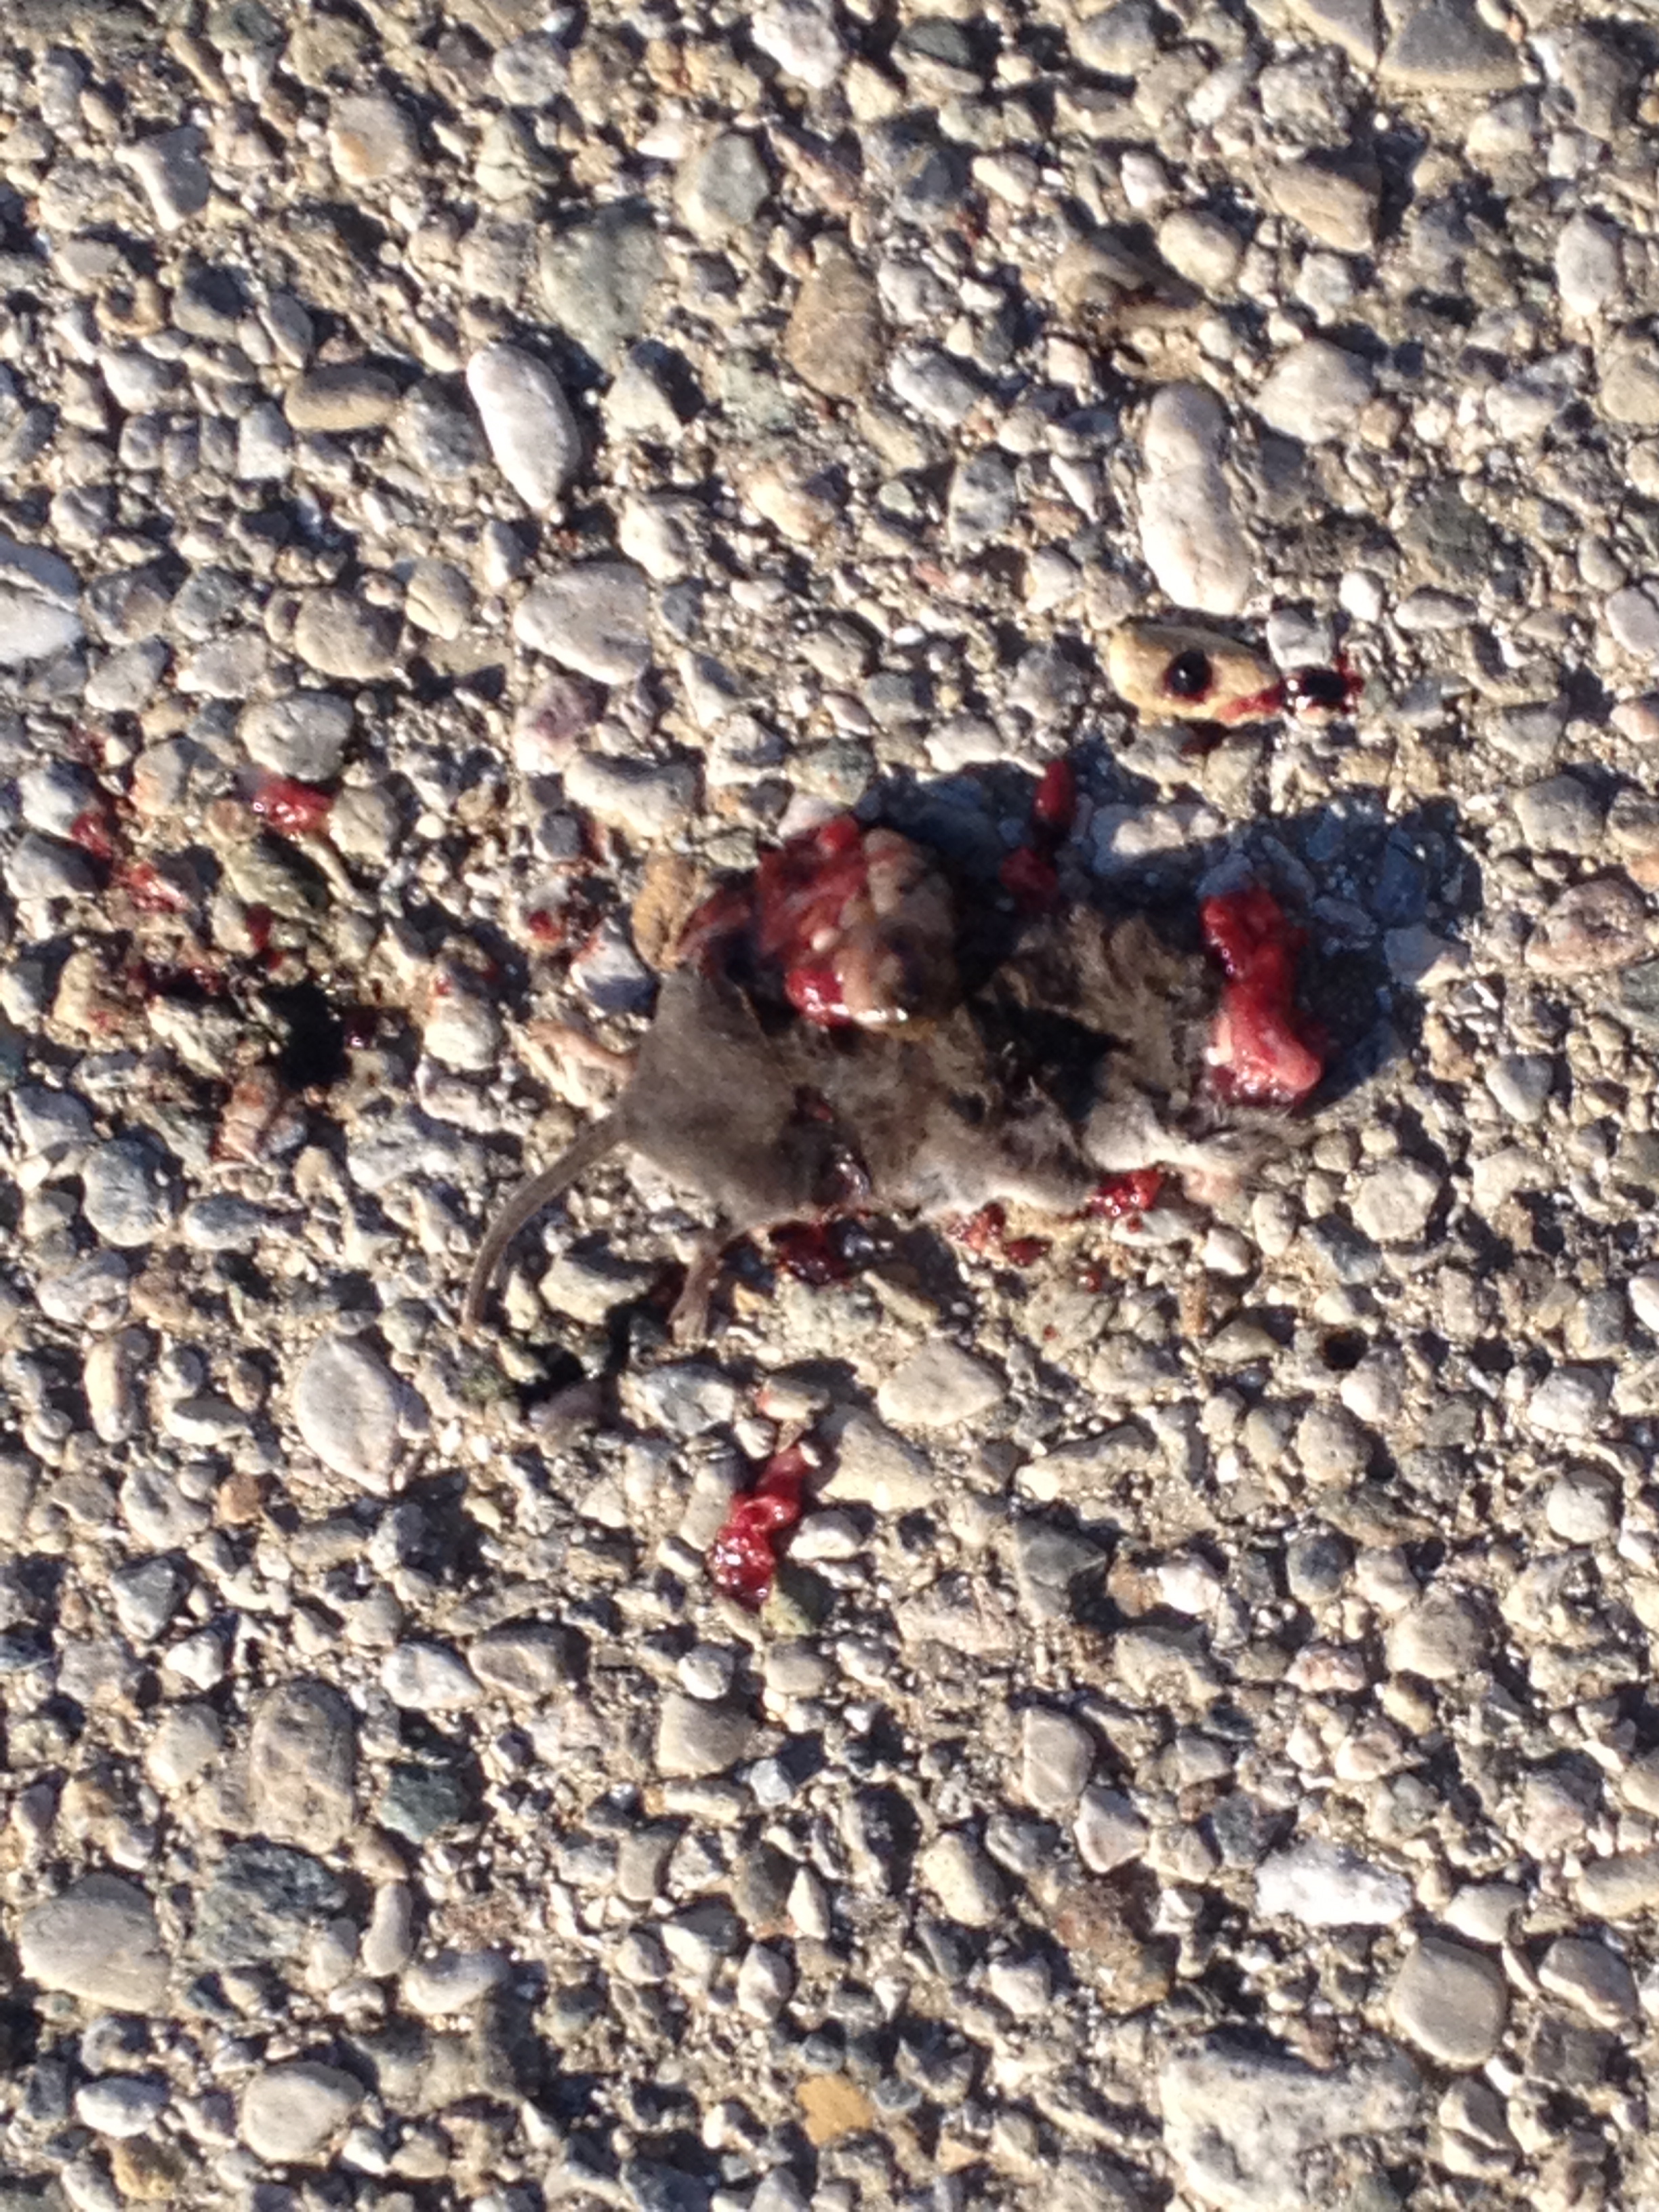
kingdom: Animalia
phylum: Chordata
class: Mammalia
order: Soricomorpha
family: Soricidae
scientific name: Soricidae
